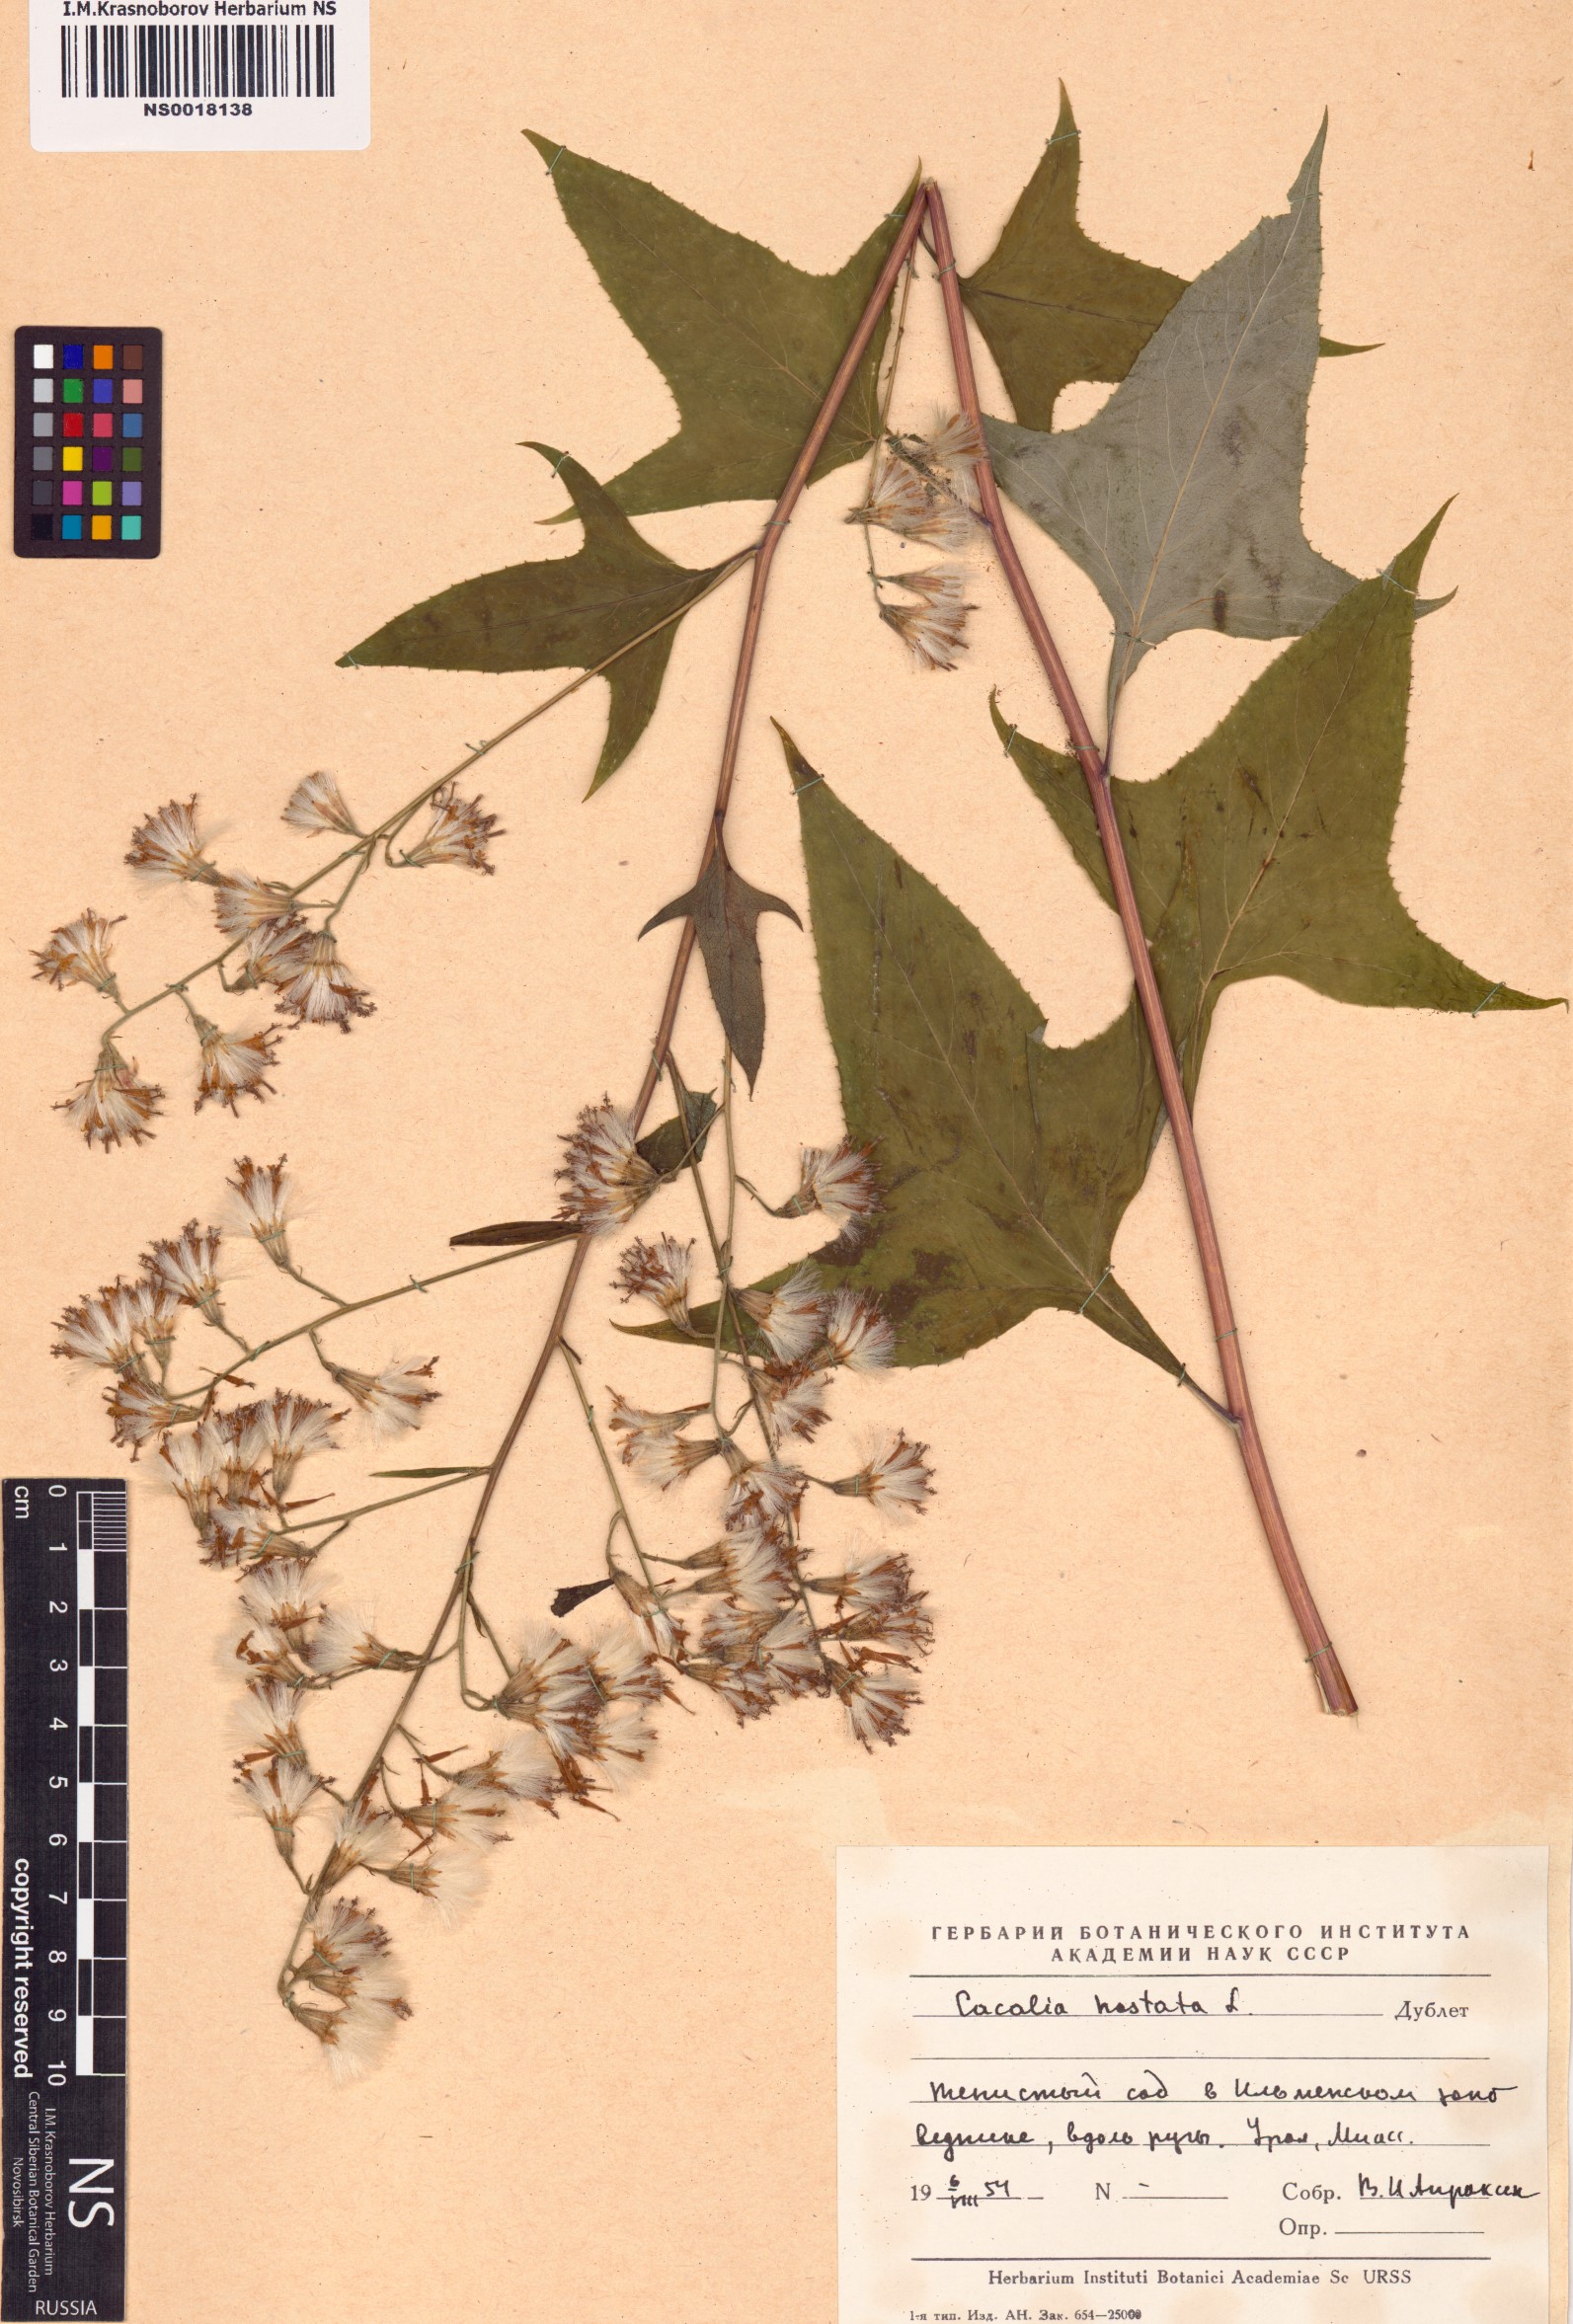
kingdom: Plantae
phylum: Tracheophyta
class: Magnoliopsida
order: Asterales
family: Asteraceae
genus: Parasenecio
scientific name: Parasenecio hastatus
